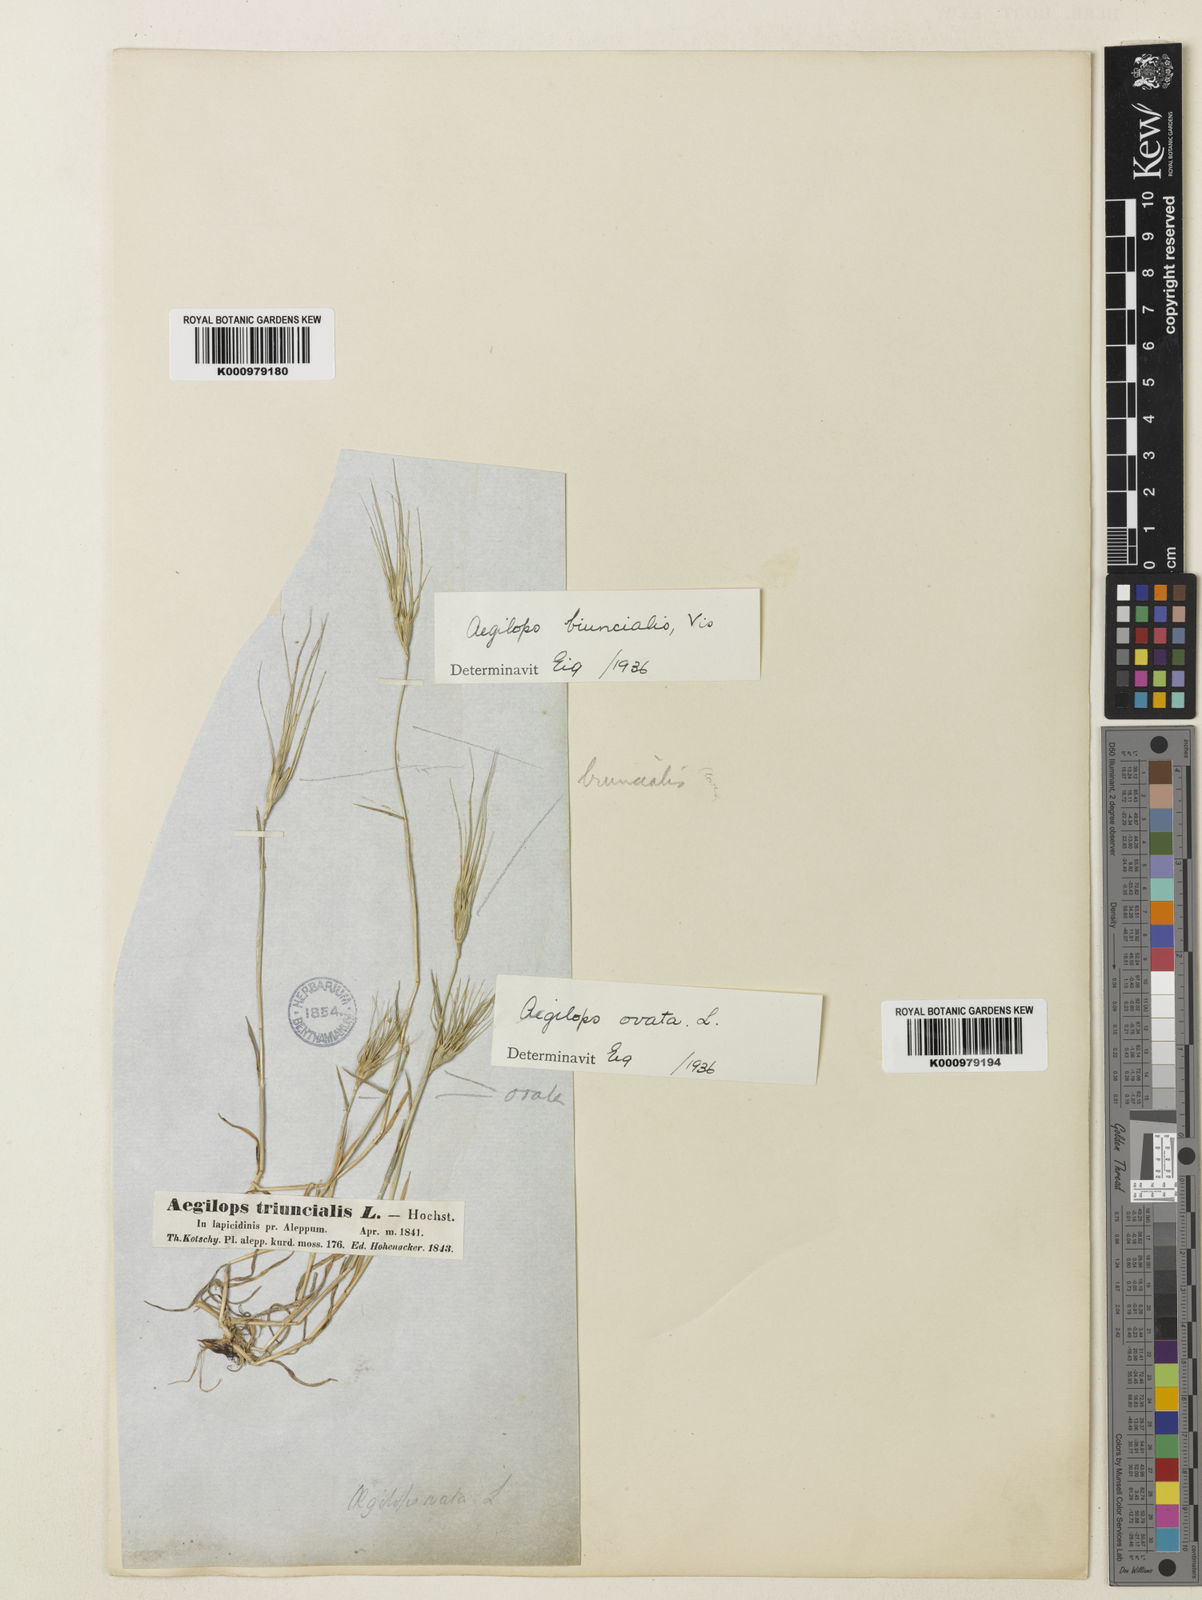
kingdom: Plantae
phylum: Tracheophyta
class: Liliopsida
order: Poales
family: Poaceae
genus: Aegilops
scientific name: Aegilops biuncialis
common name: Mediterranean aegilops
